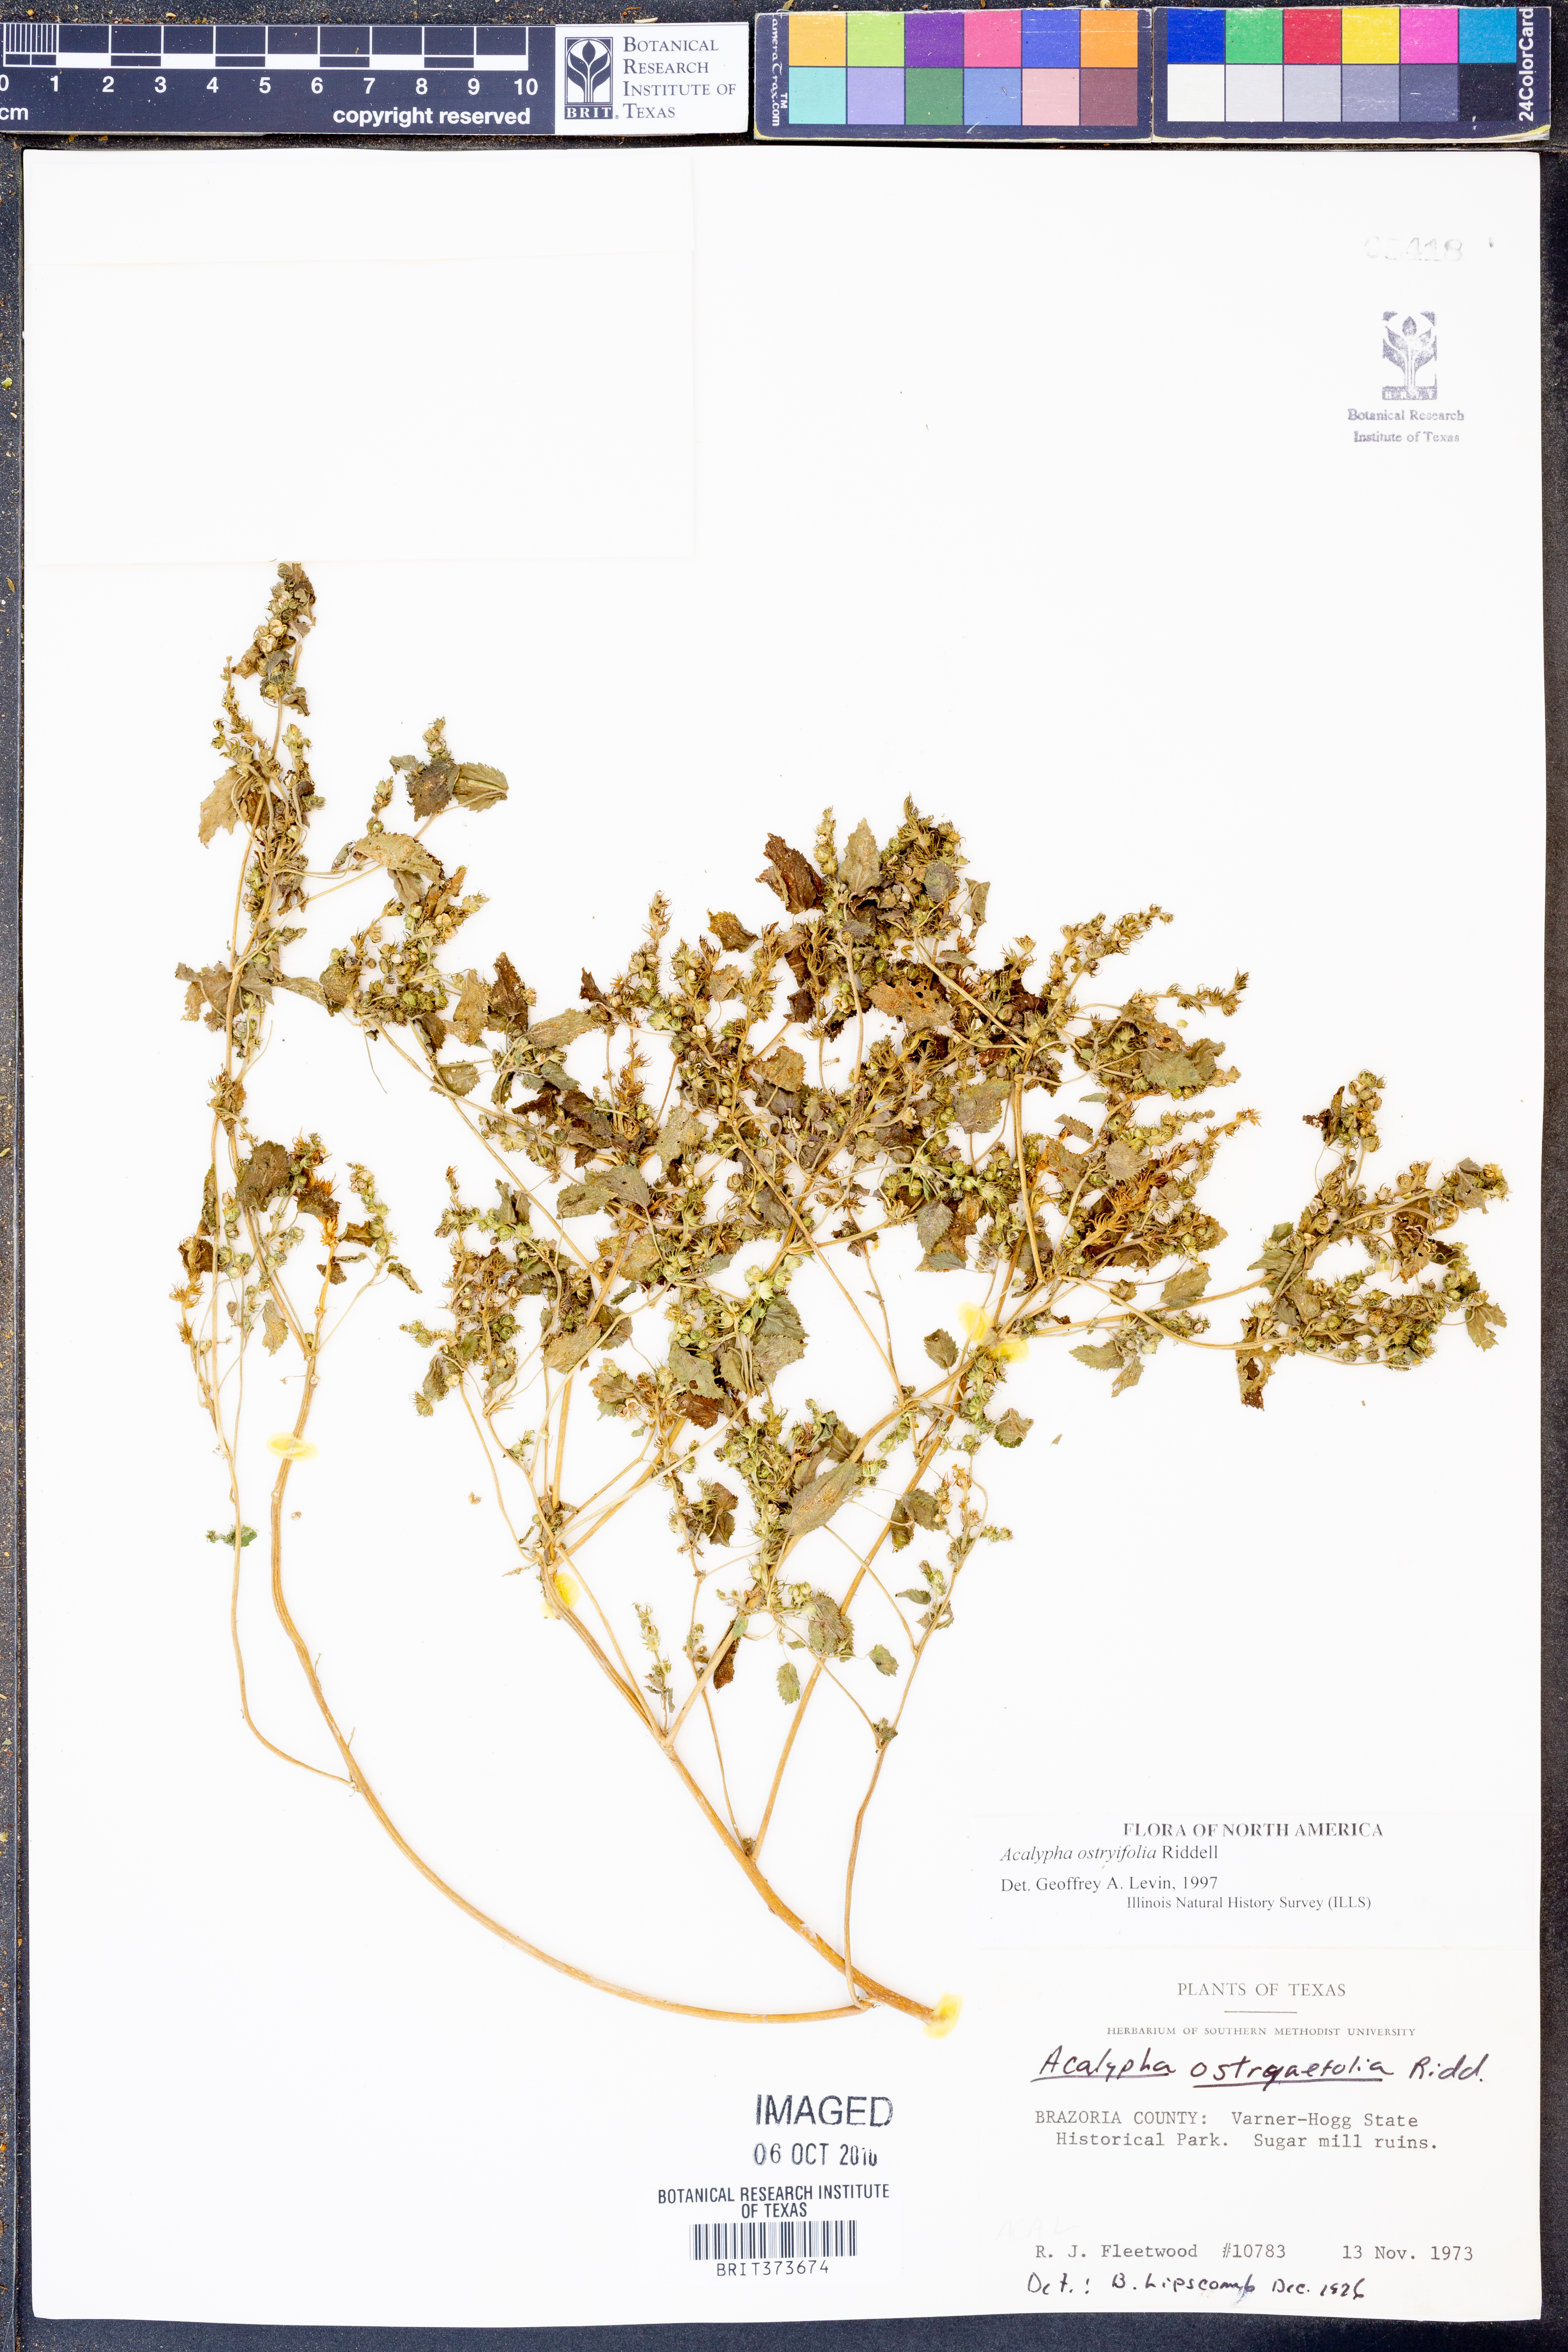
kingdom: Plantae
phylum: Tracheophyta
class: Magnoliopsida
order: Malpighiales
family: Euphorbiaceae
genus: Acalypha
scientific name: Acalypha persimilis
